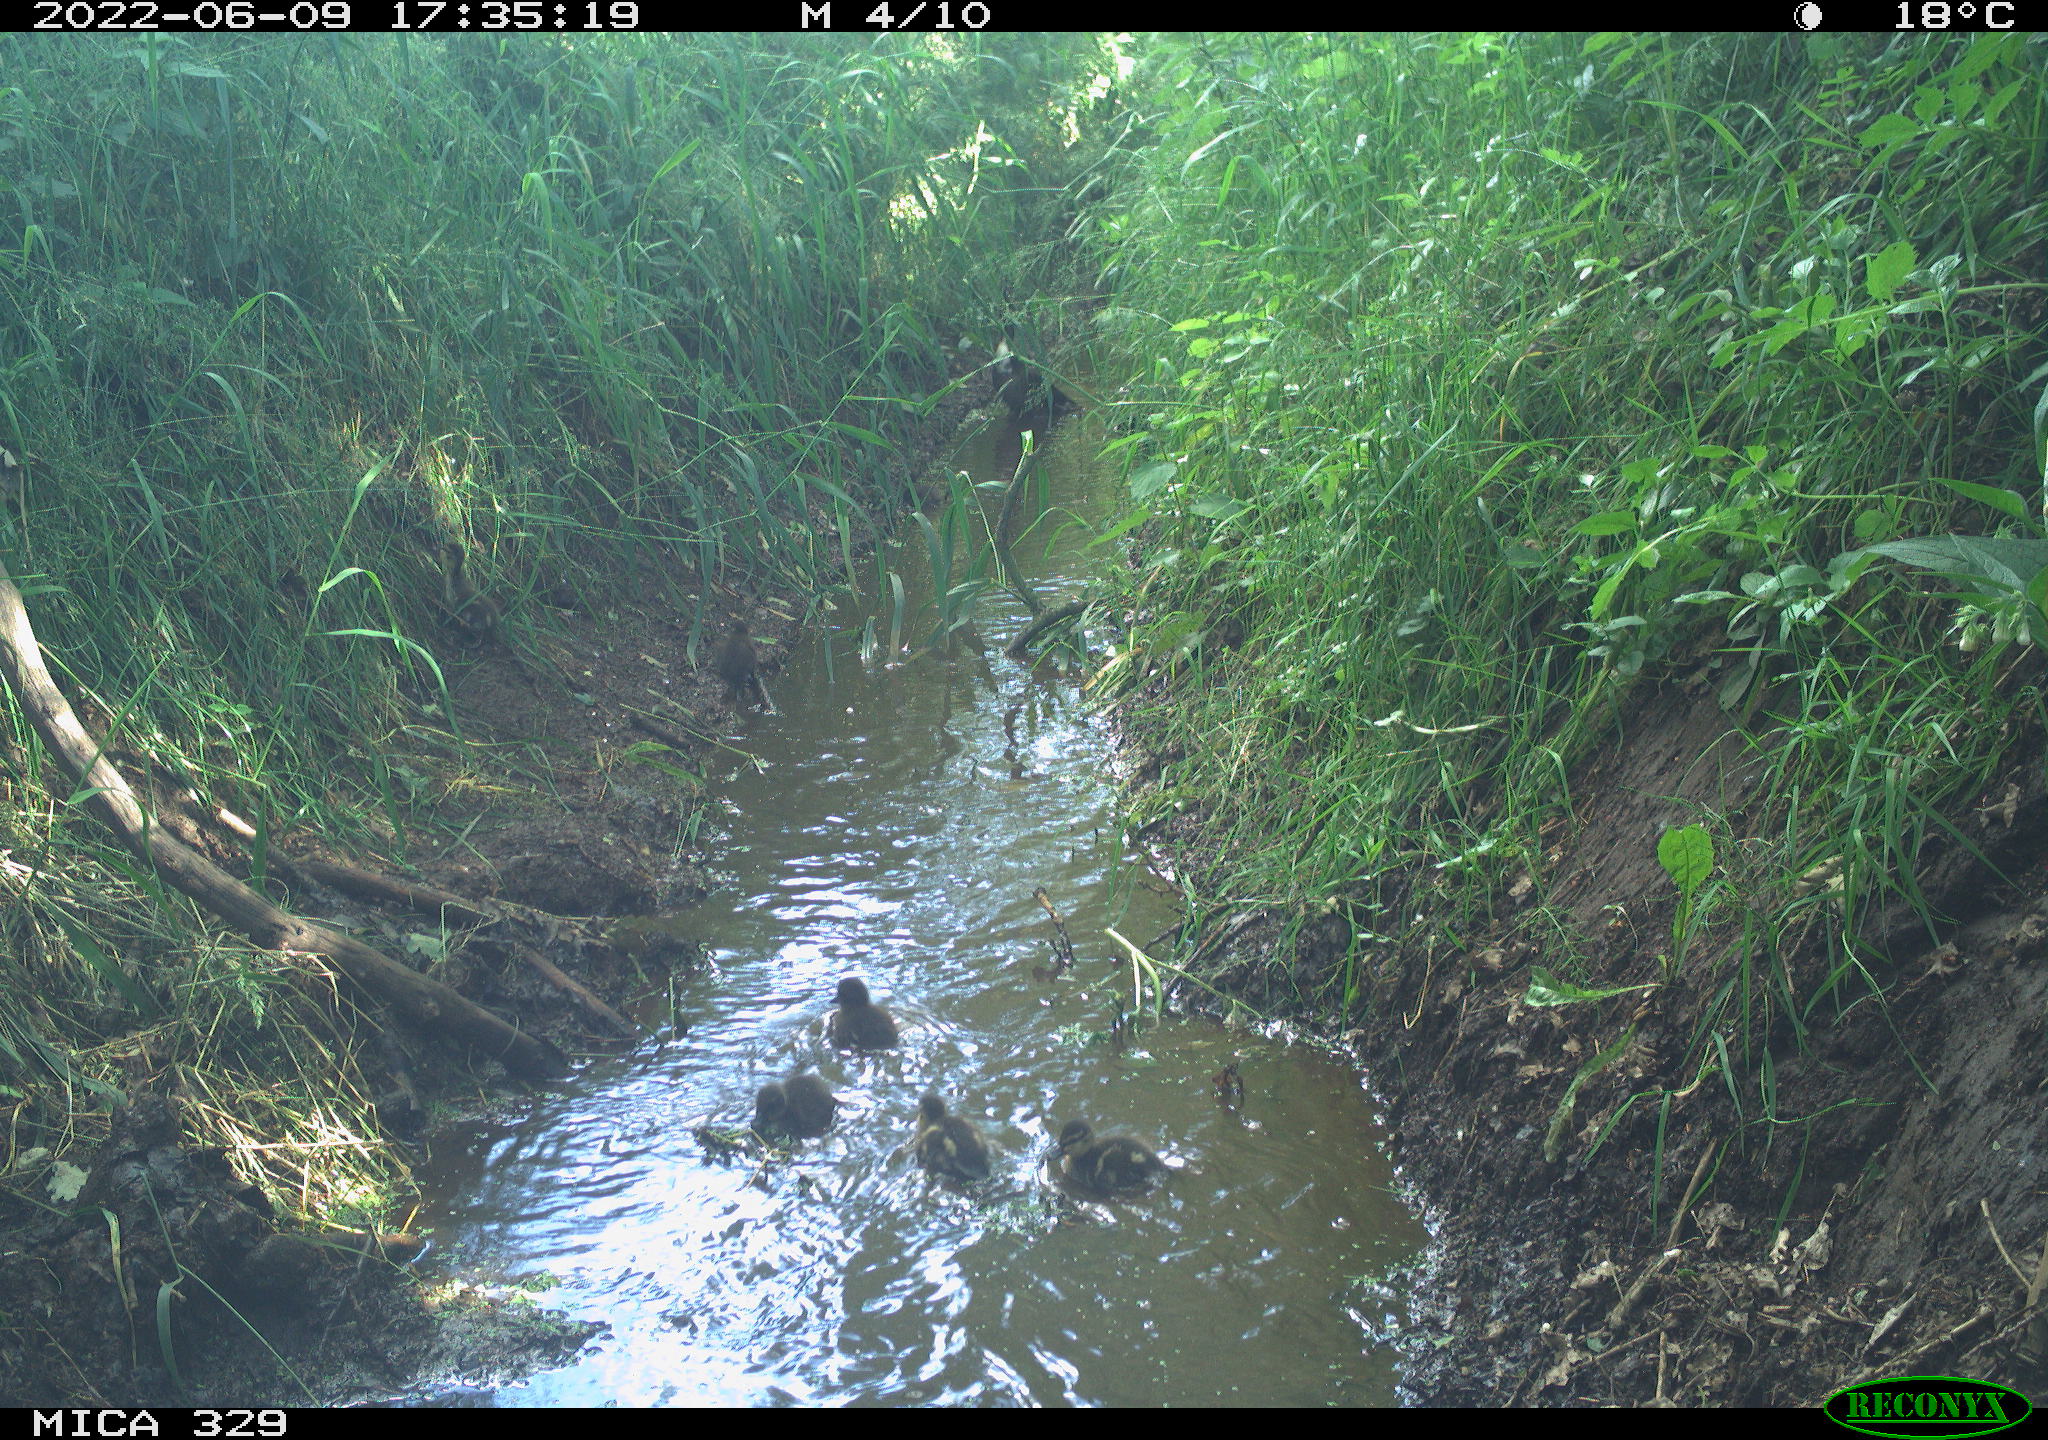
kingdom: Animalia
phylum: Chordata
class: Aves
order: Anseriformes
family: Anatidae
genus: Anas
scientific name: Anas
